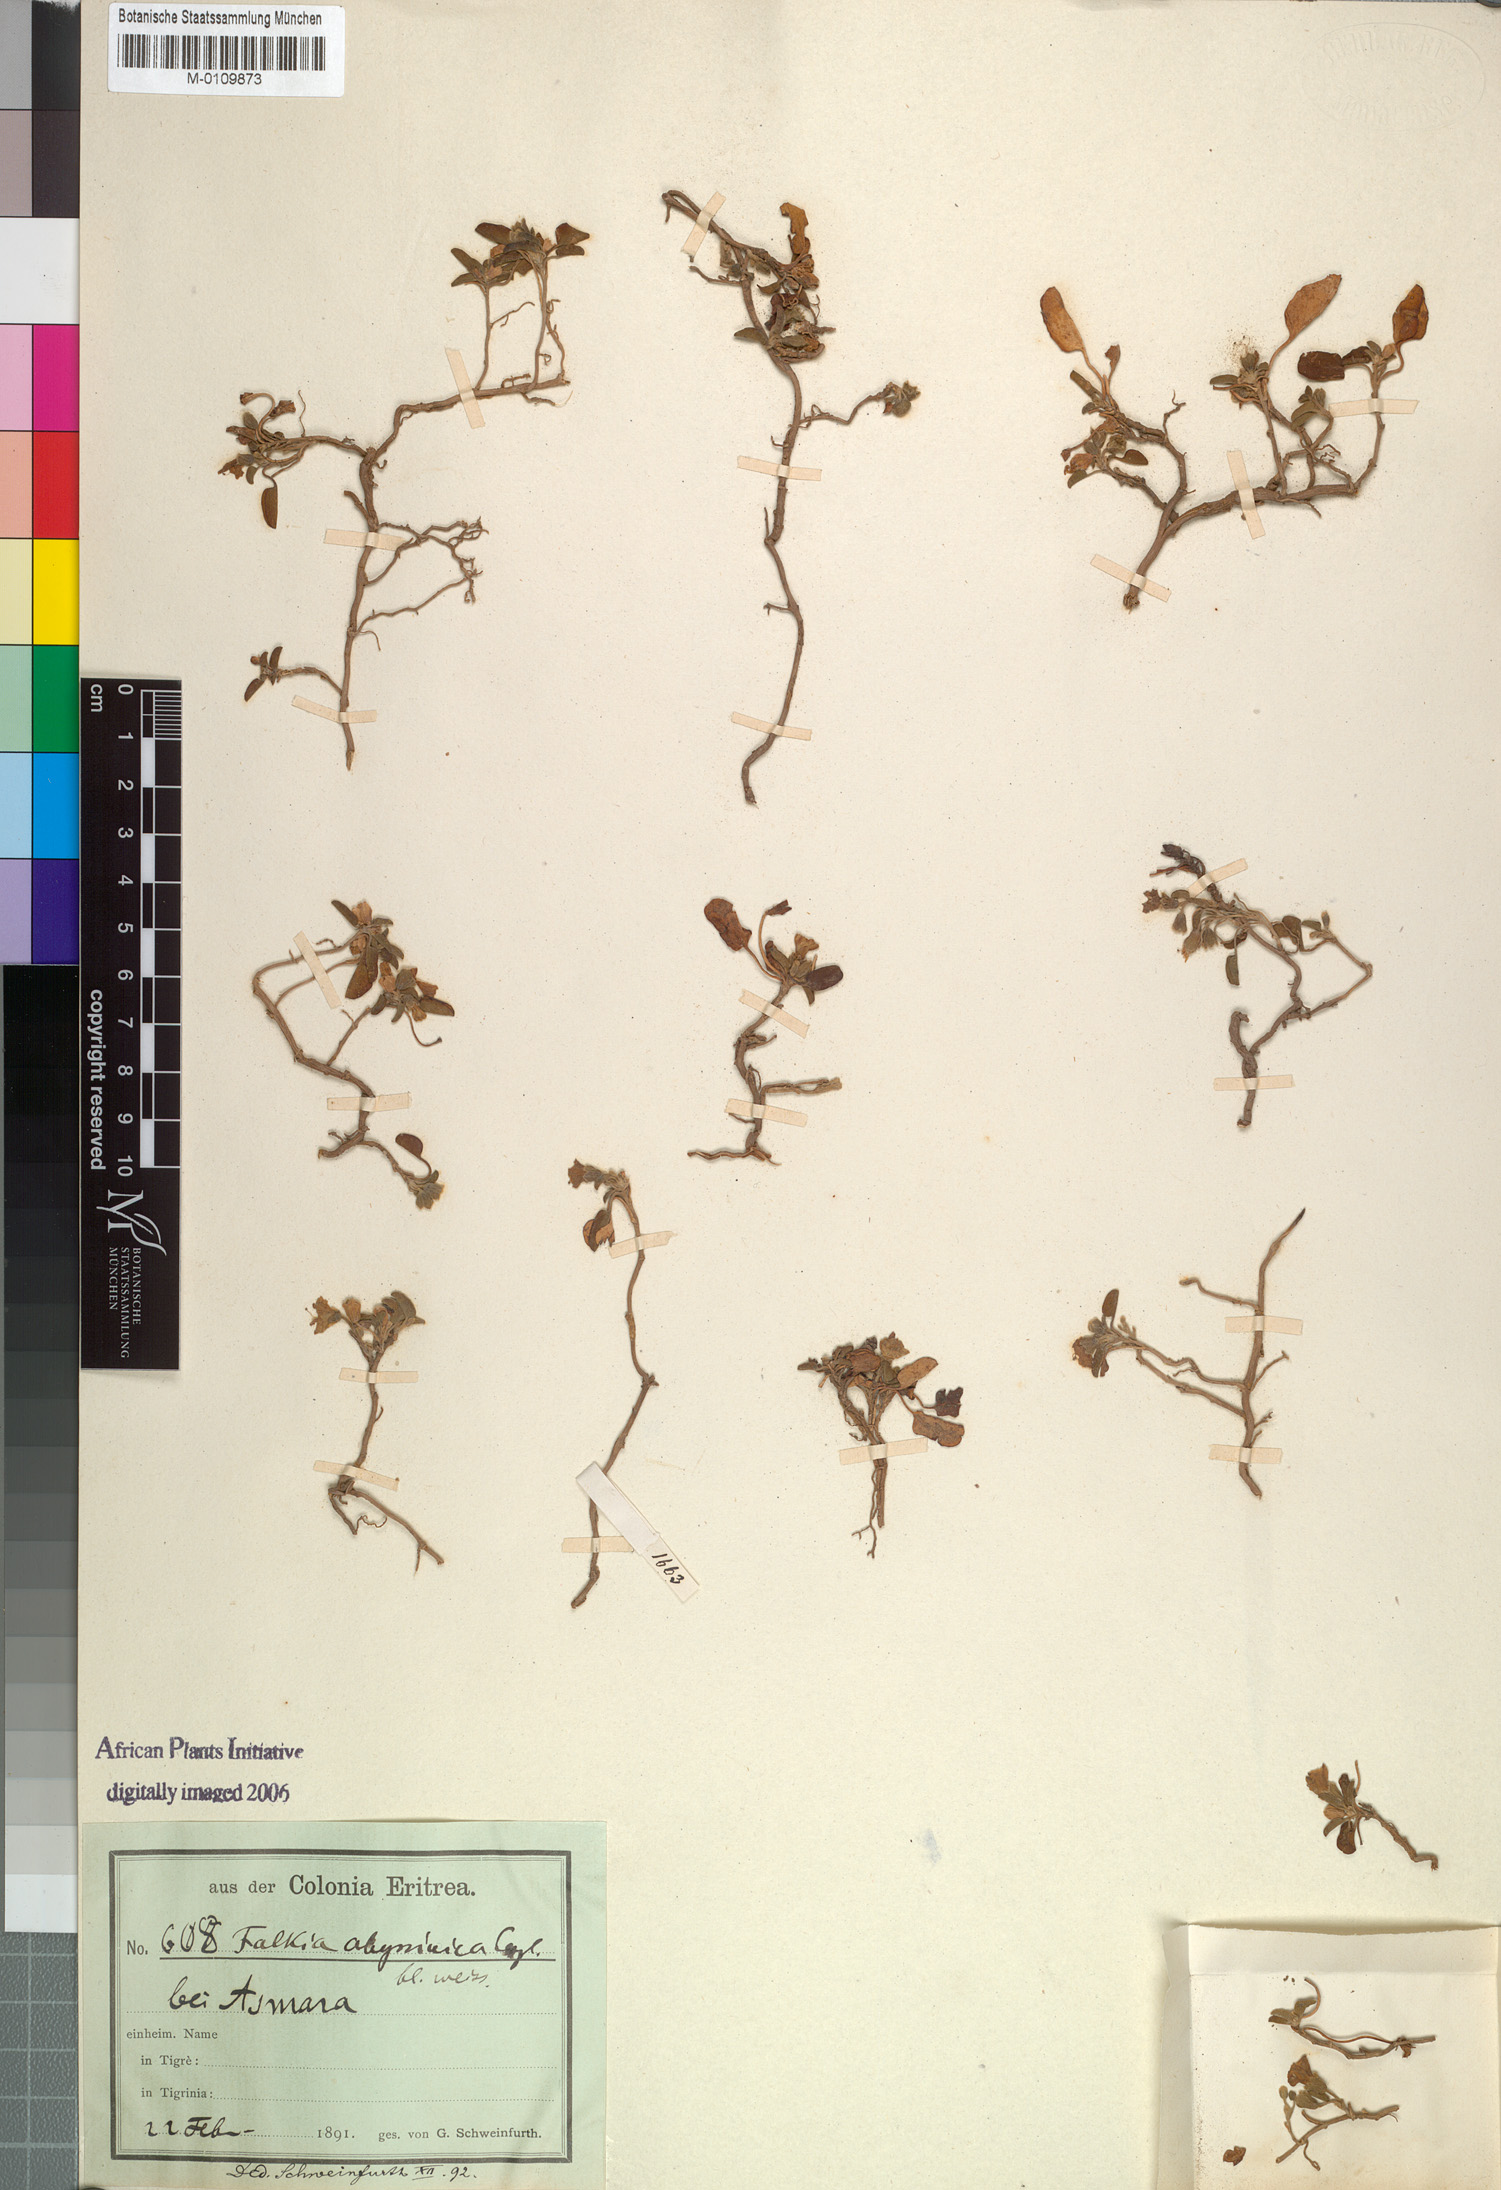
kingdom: Plantae
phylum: Tracheophyta
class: Magnoliopsida
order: Solanales
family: Convolvulaceae
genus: Falkia
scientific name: Falkia oblonga
